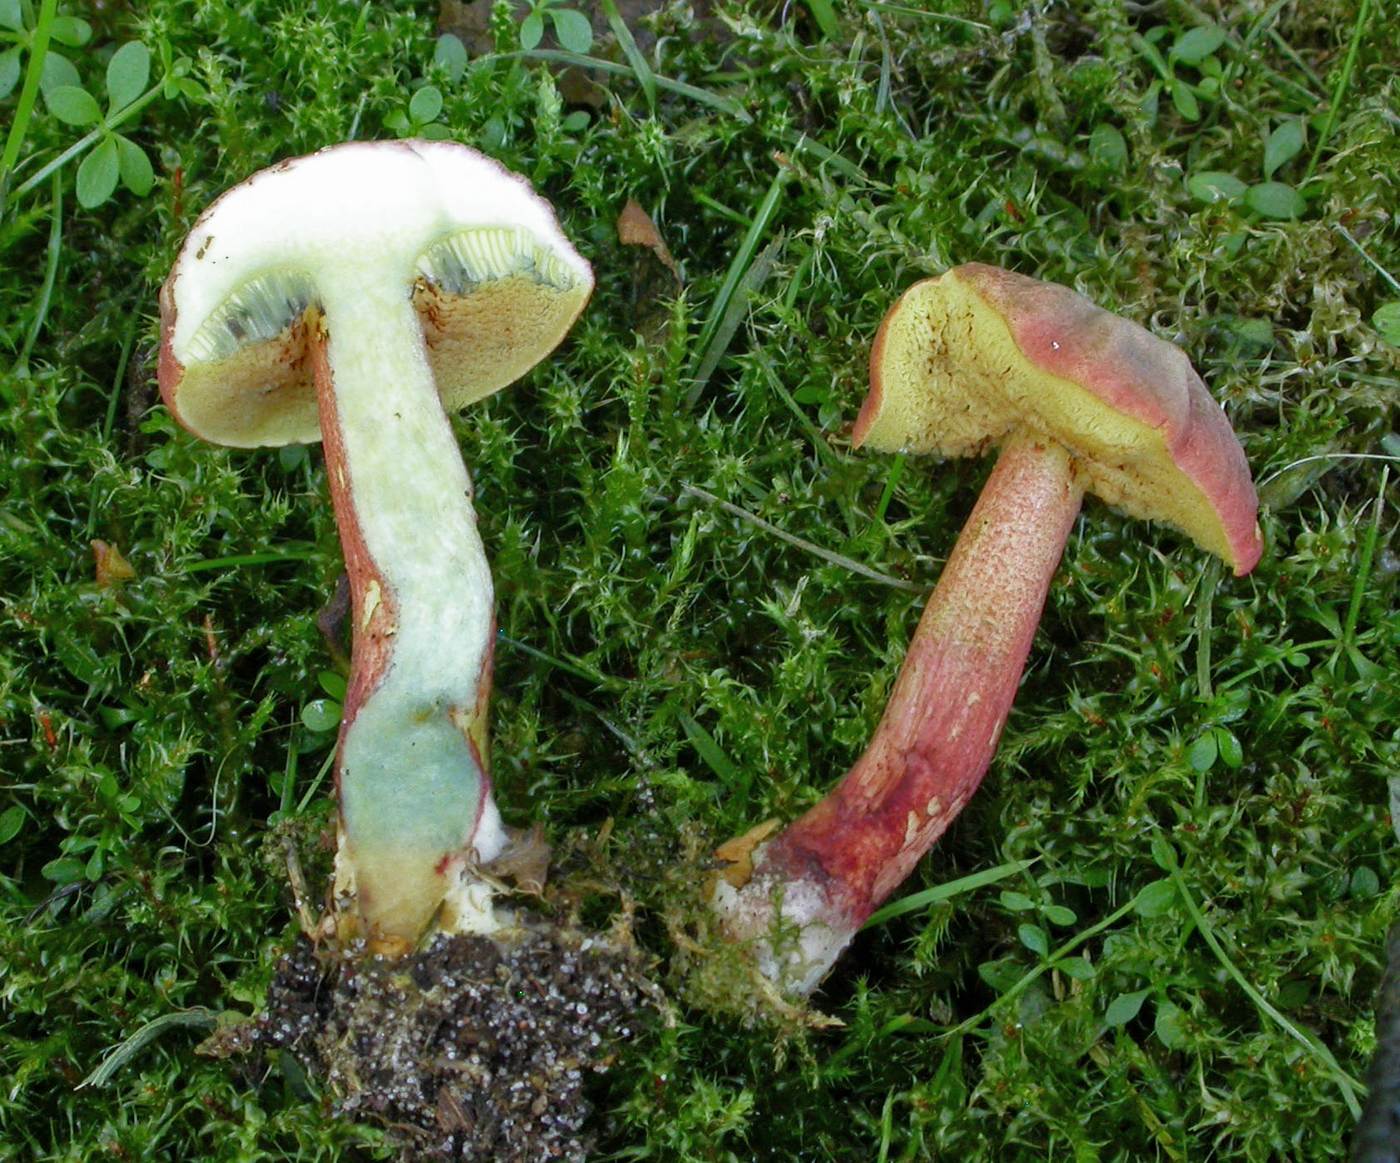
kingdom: Fungi
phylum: Basidiomycota
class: Agaricomycetes
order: Boletales
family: Boletaceae
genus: Xerocomellus
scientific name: Xerocomellus ripariellus
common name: sump-rørhat
